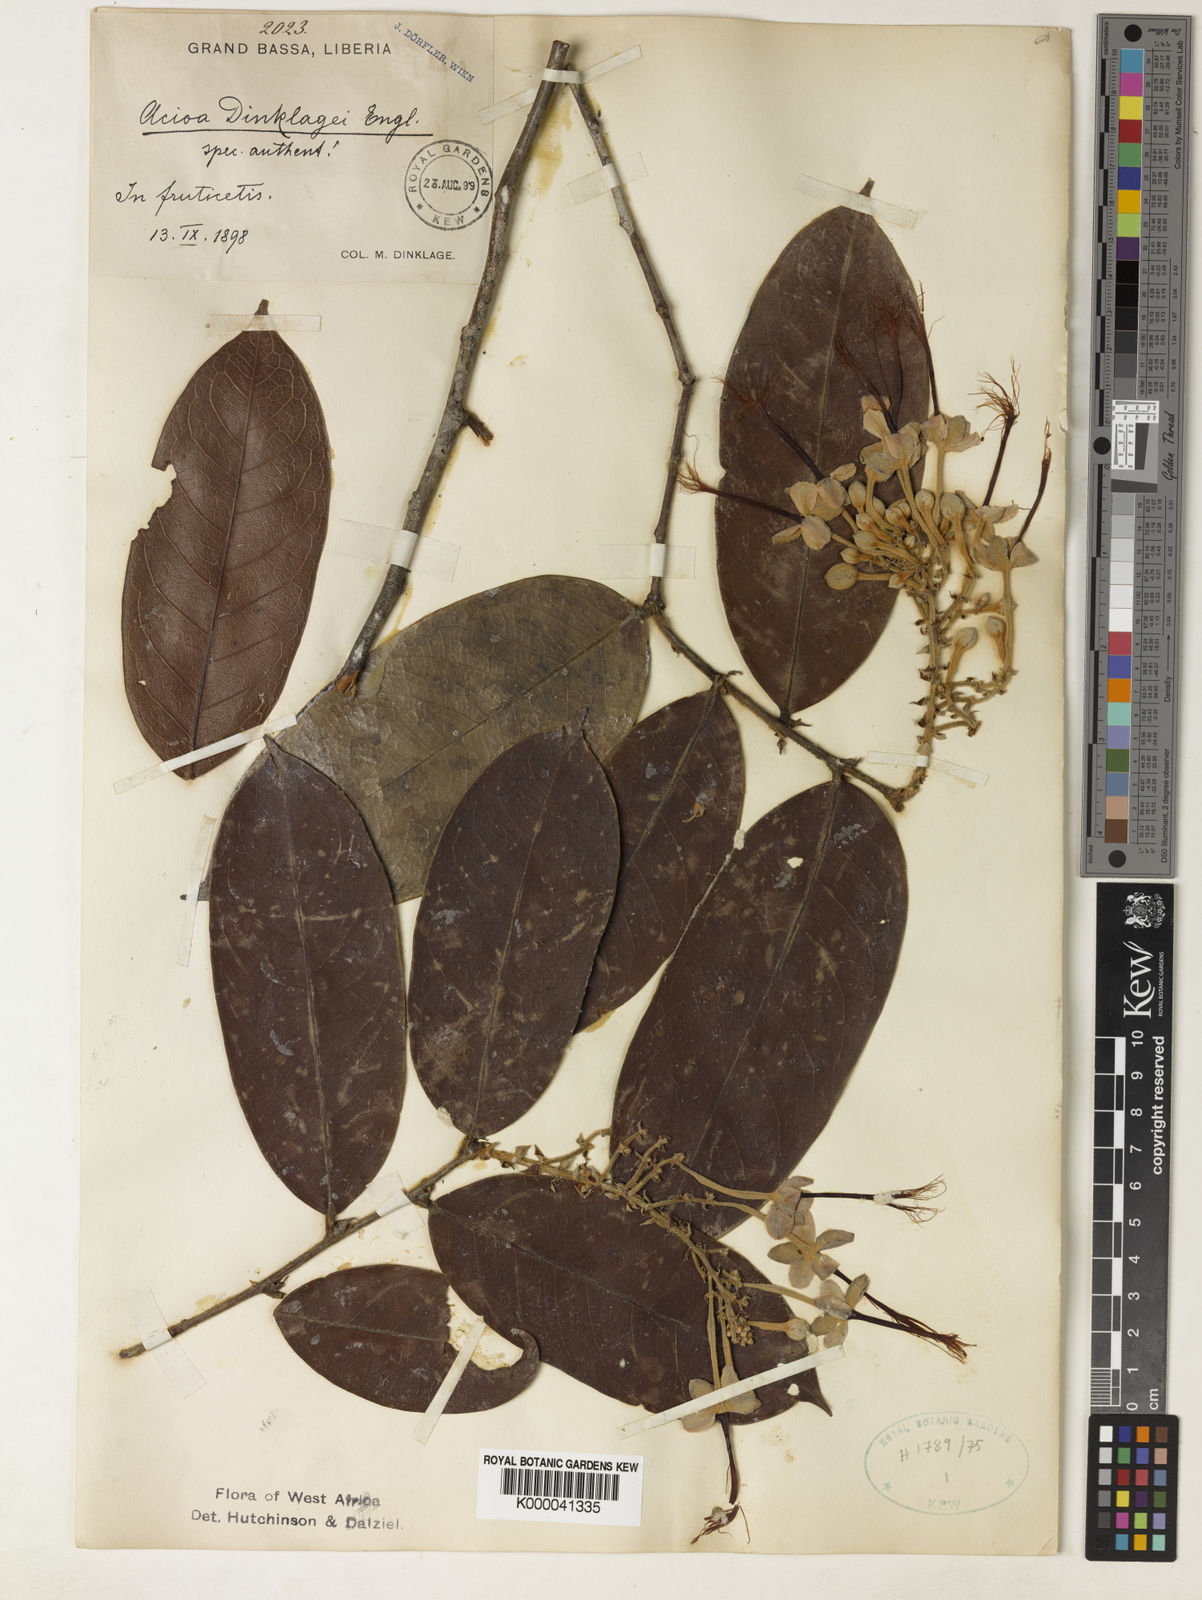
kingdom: Plantae
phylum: Tracheophyta
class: Magnoliopsida
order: Malpighiales
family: Chrysobalanaceae
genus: Dactyladenia
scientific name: Dactyladenia dinklagei
